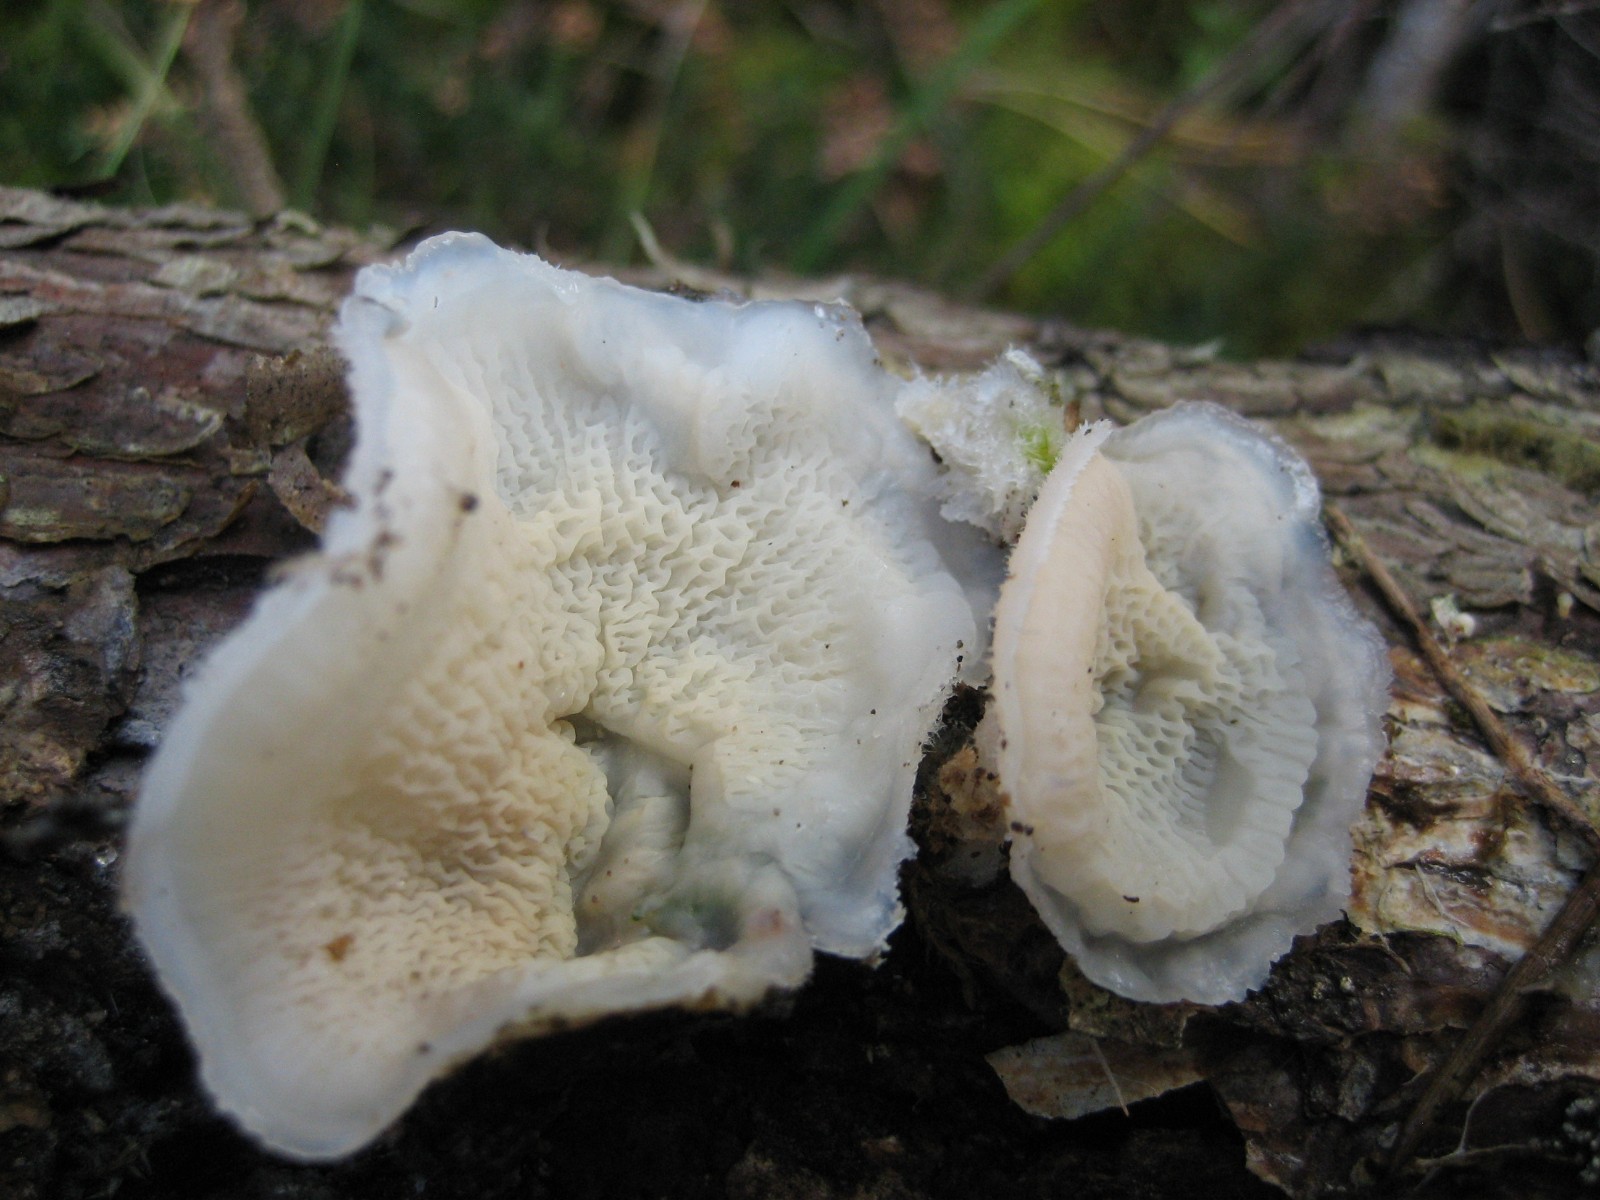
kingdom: Fungi
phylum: Basidiomycota
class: Agaricomycetes
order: Polyporales
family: Meruliaceae
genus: Phlebia
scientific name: Phlebia tremellosa
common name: bævrende åresvamp
